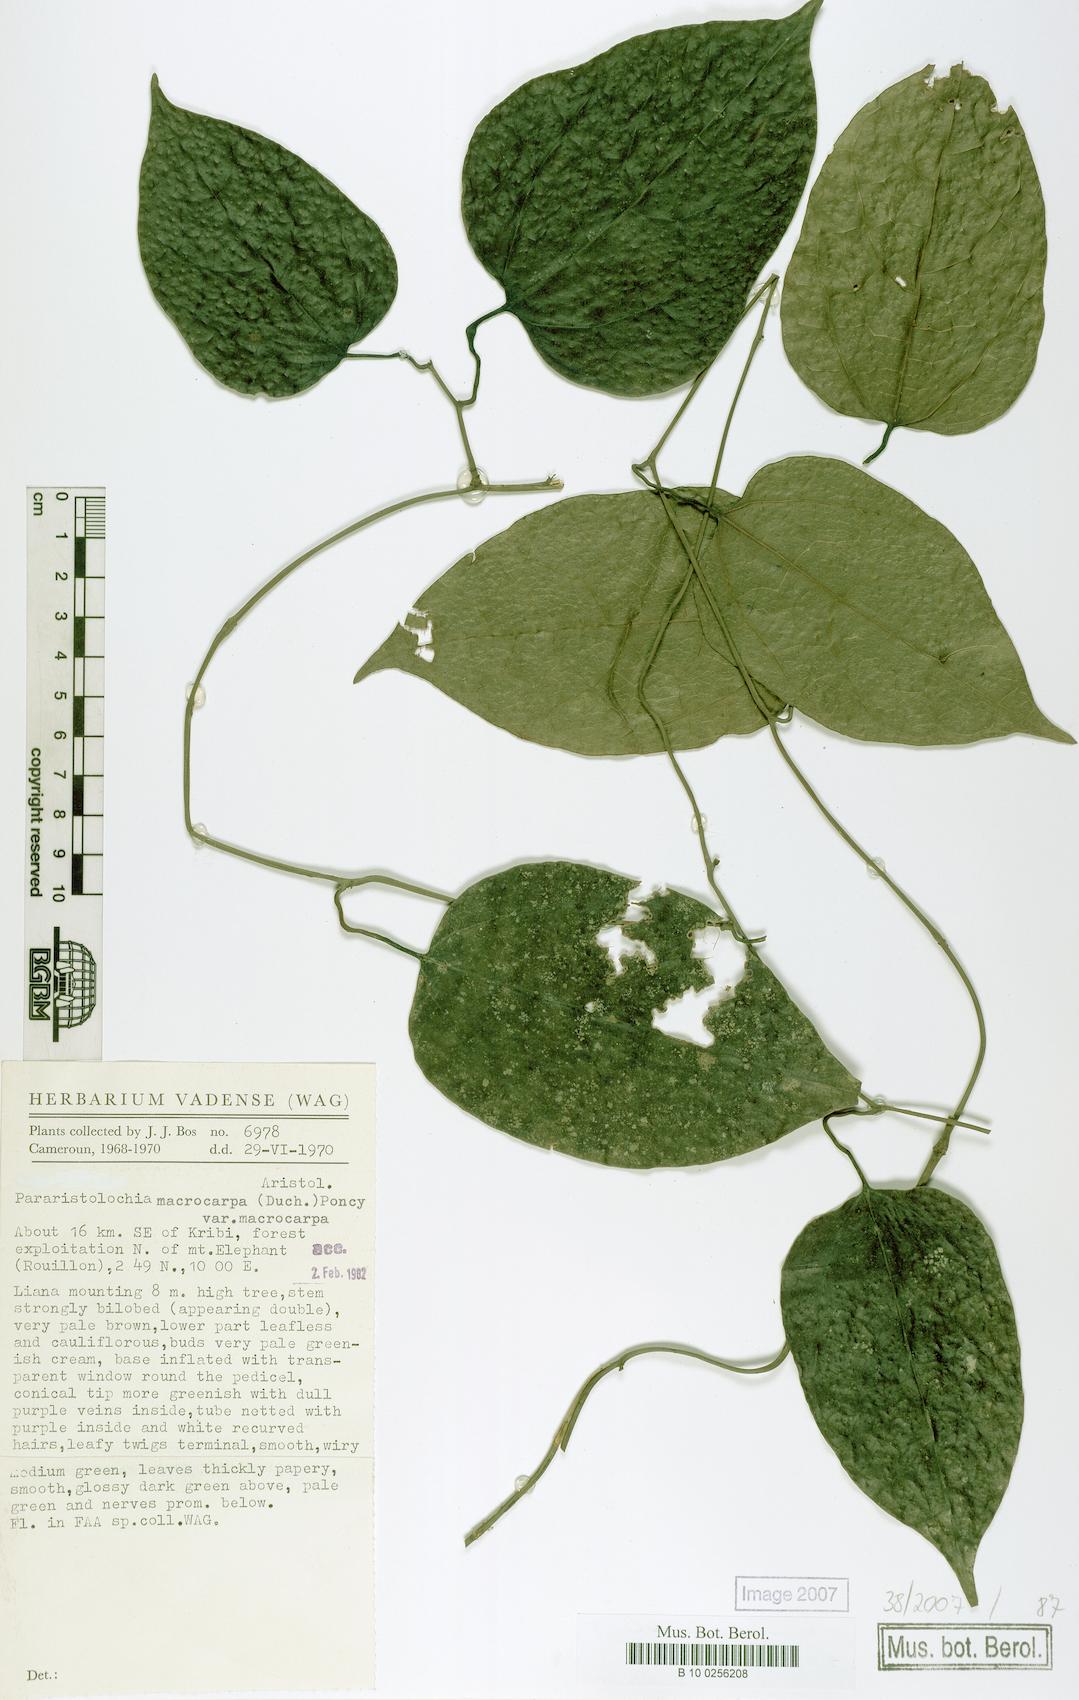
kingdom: Plantae
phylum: Tracheophyta
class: Magnoliopsida
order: Piperales
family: Aristolochiaceae
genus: Aristolochia
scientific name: Aristolochia macrocarpa
